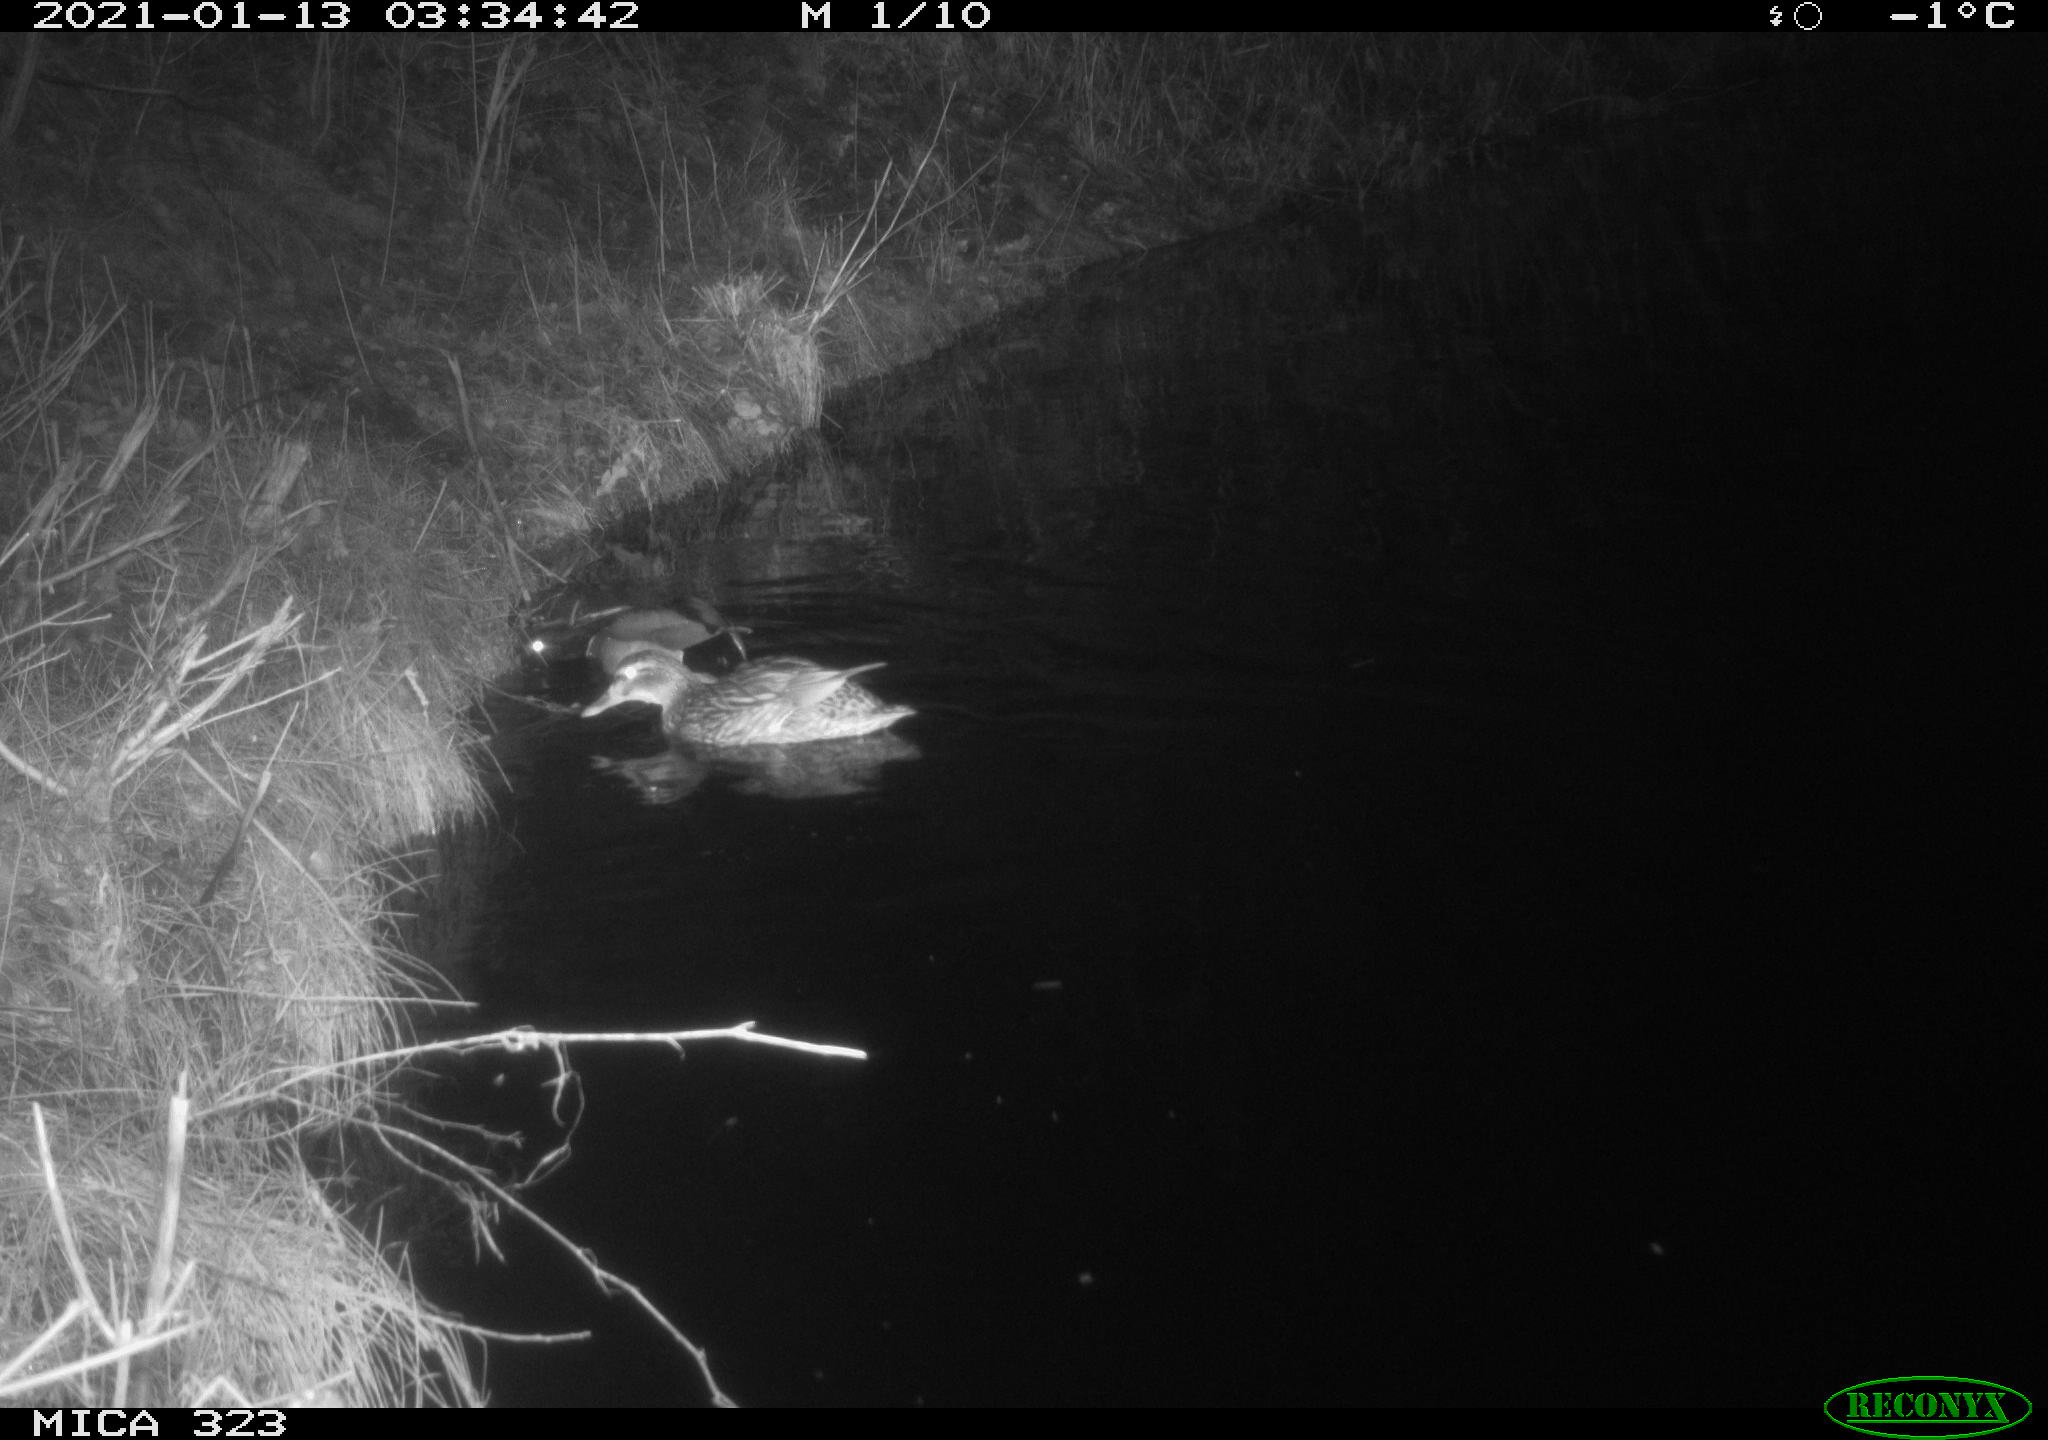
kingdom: Animalia
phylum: Chordata
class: Aves
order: Anseriformes
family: Anatidae
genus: Anas
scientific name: Anas platyrhynchos
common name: Mallard
